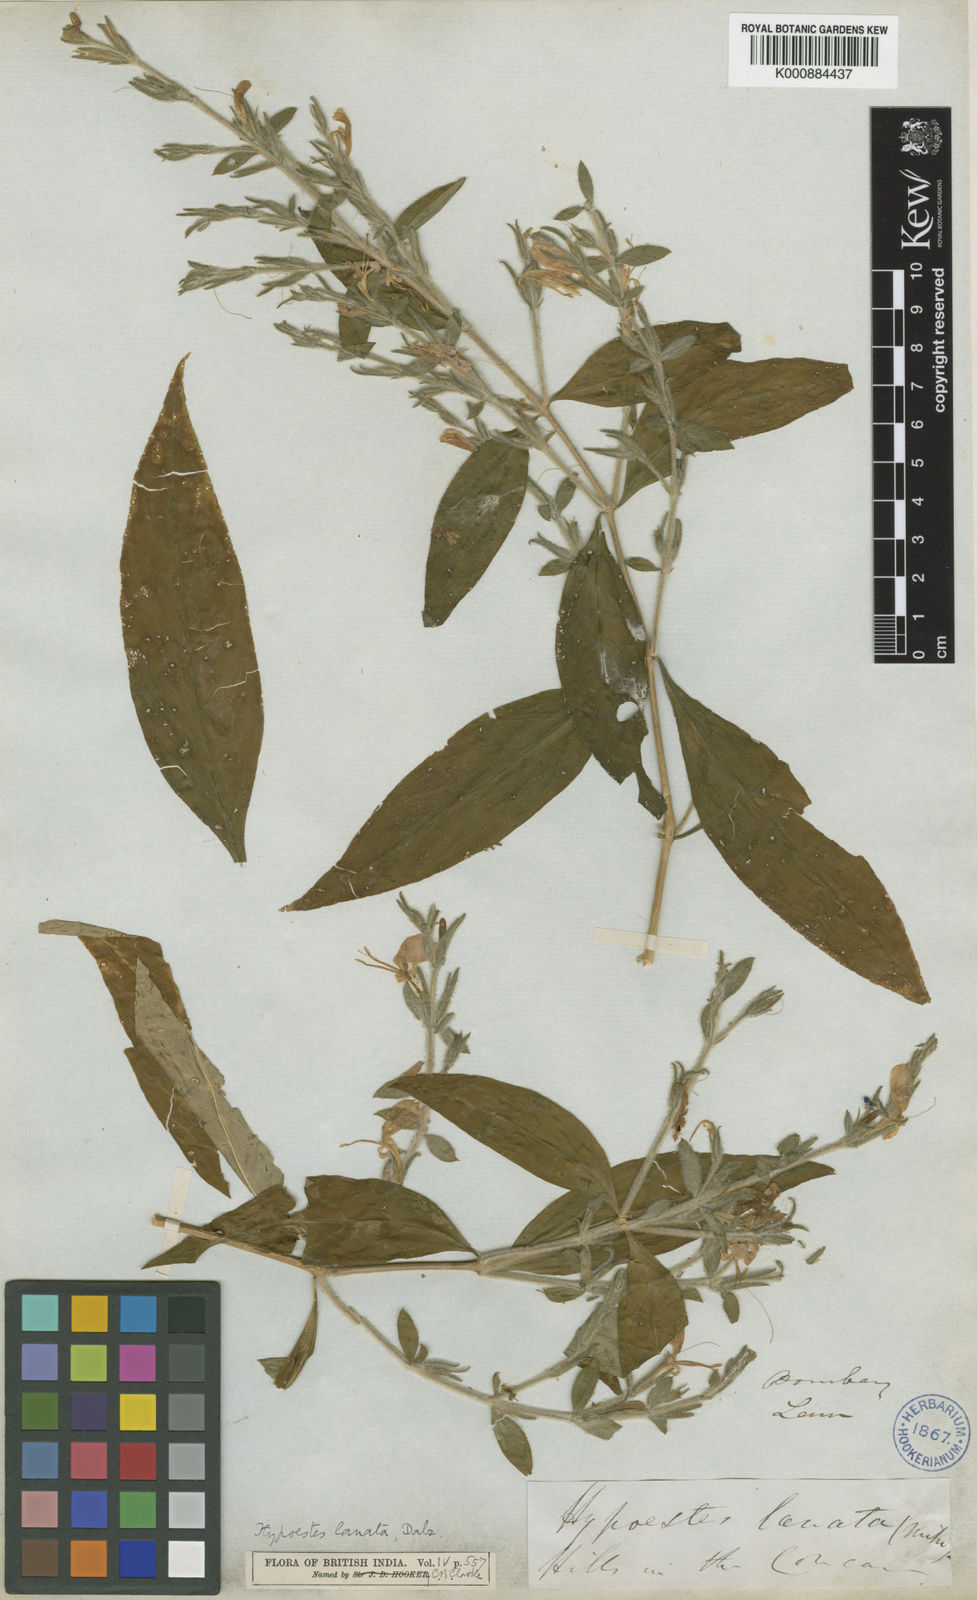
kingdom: Plantae
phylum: Tracheophyta
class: Magnoliopsida
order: Lamiales
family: Acanthaceae
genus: Hypoestes
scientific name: Hypoestes lanata
